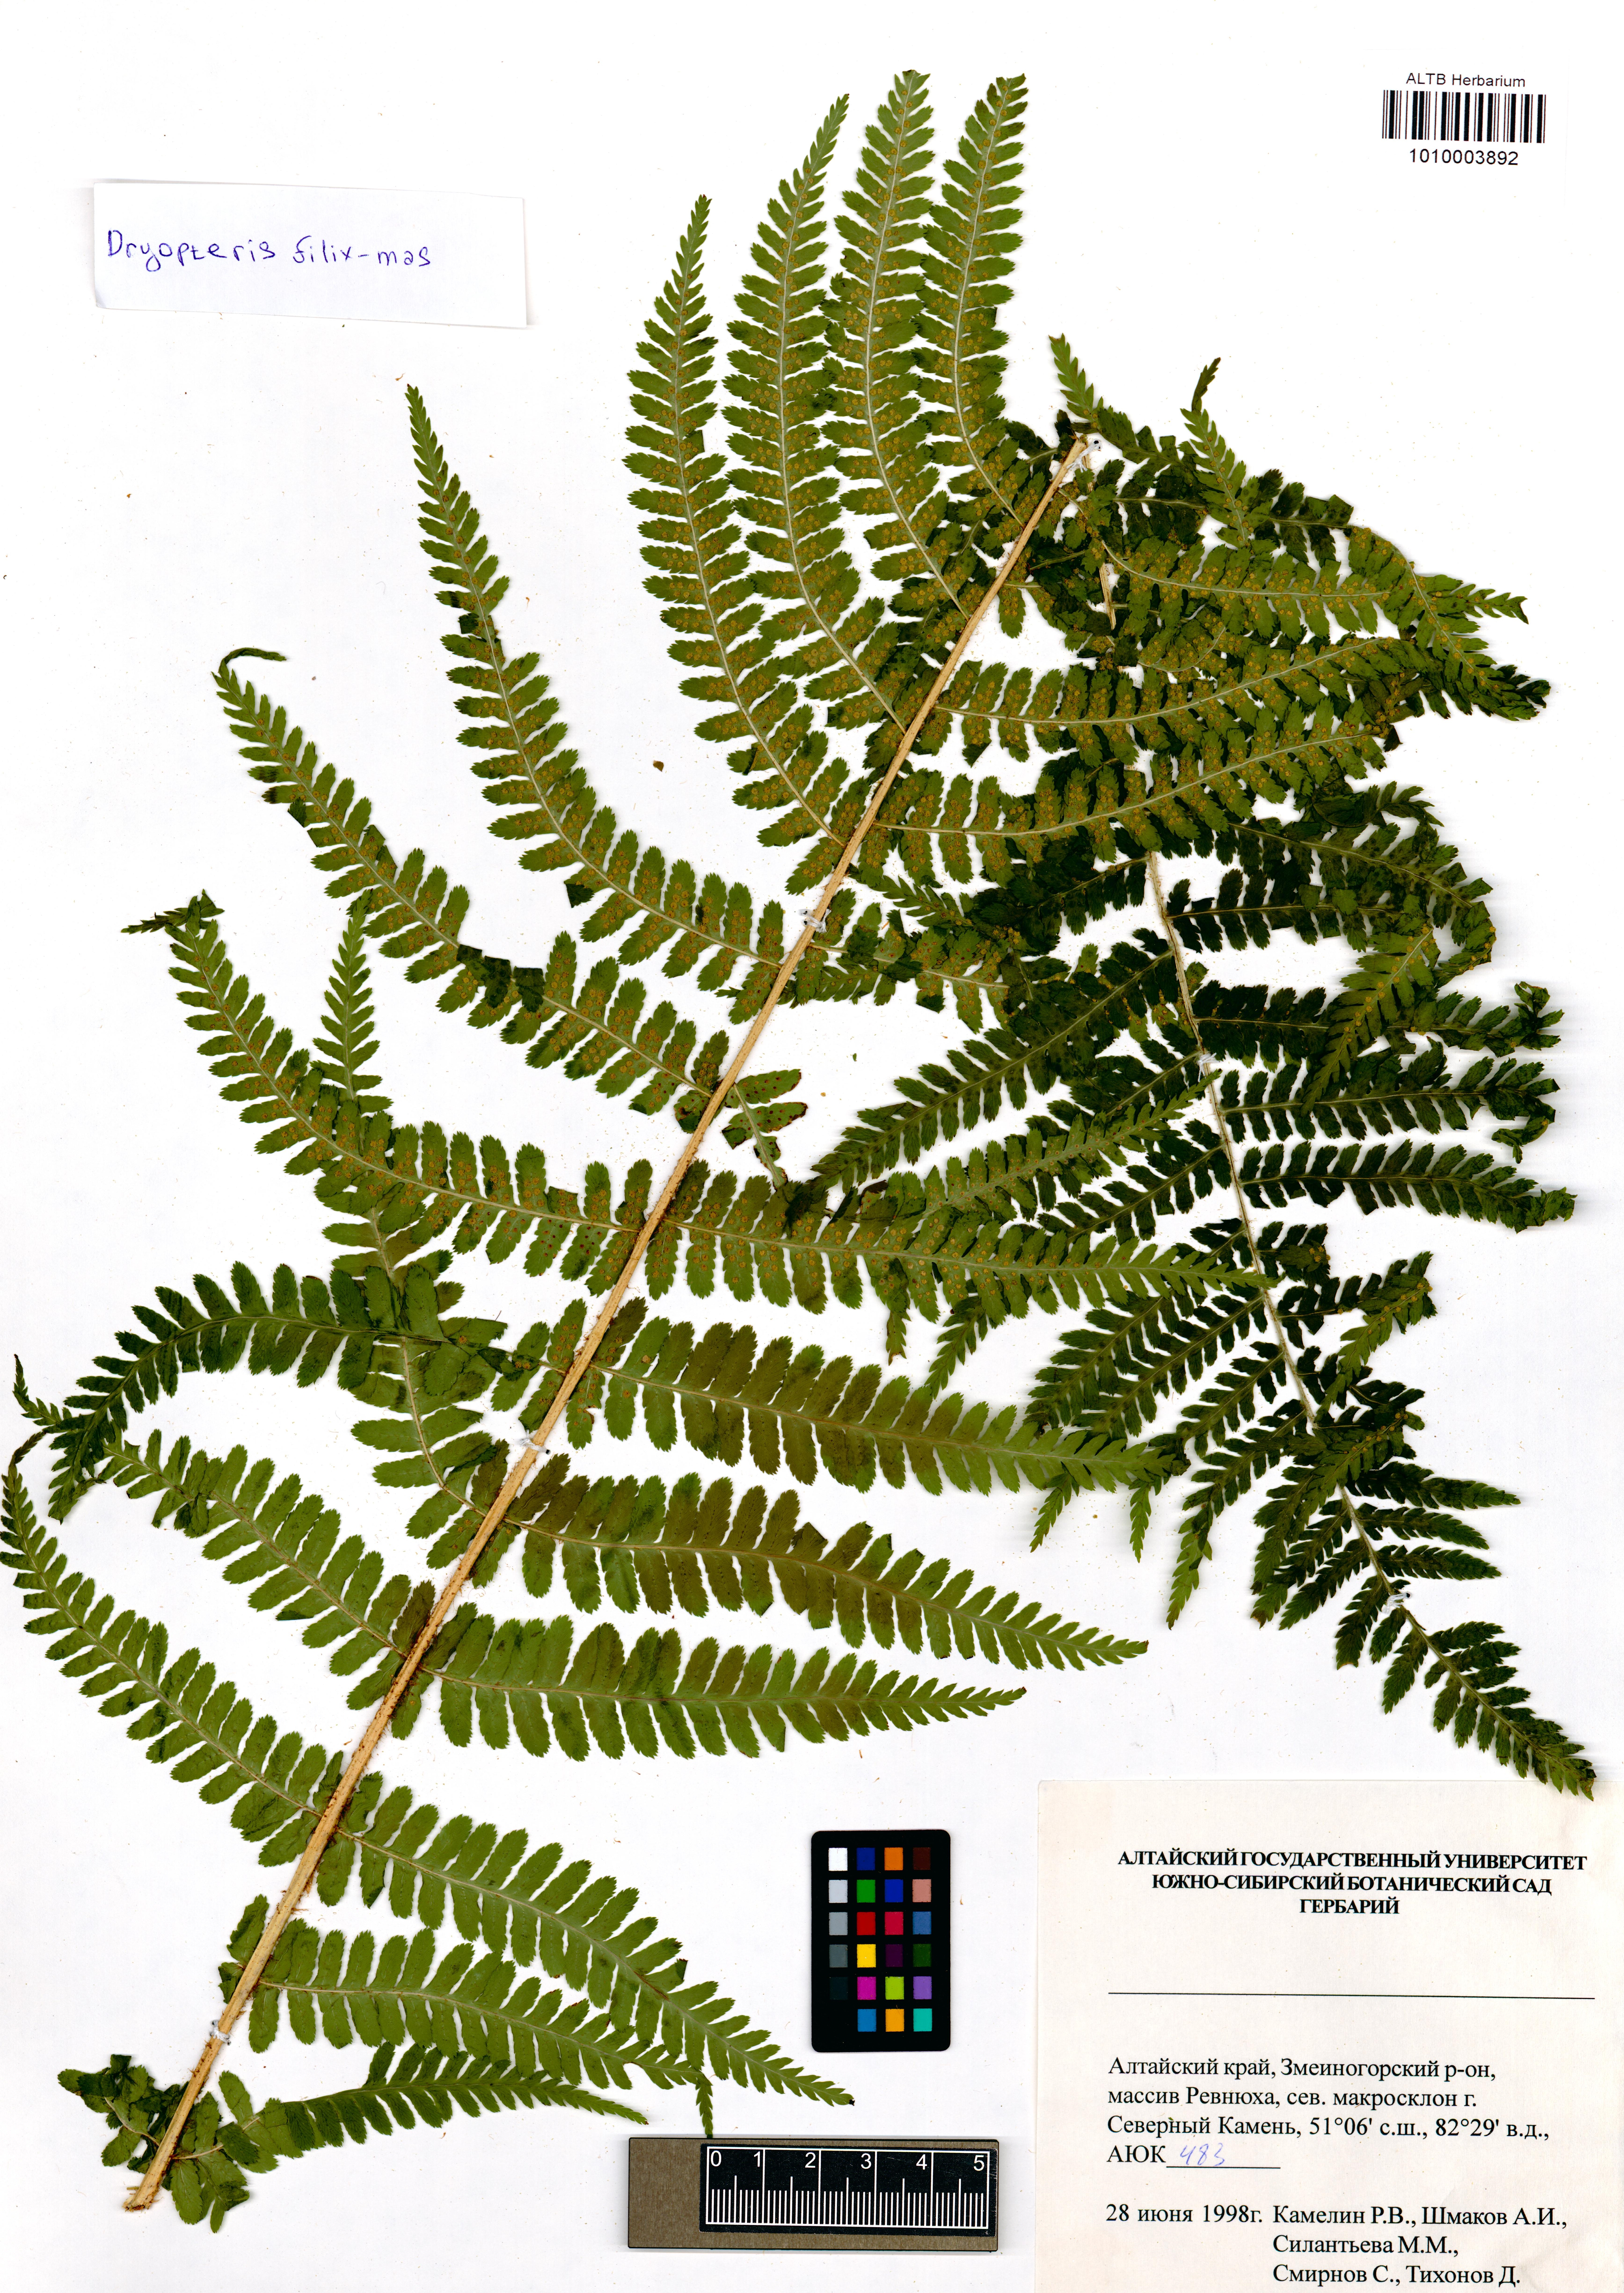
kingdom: Plantae
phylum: Tracheophyta
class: Polypodiopsida
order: Polypodiales
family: Dryopteridaceae
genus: Dryopteris
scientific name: Dryopteris filix-mas
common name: Male fern
